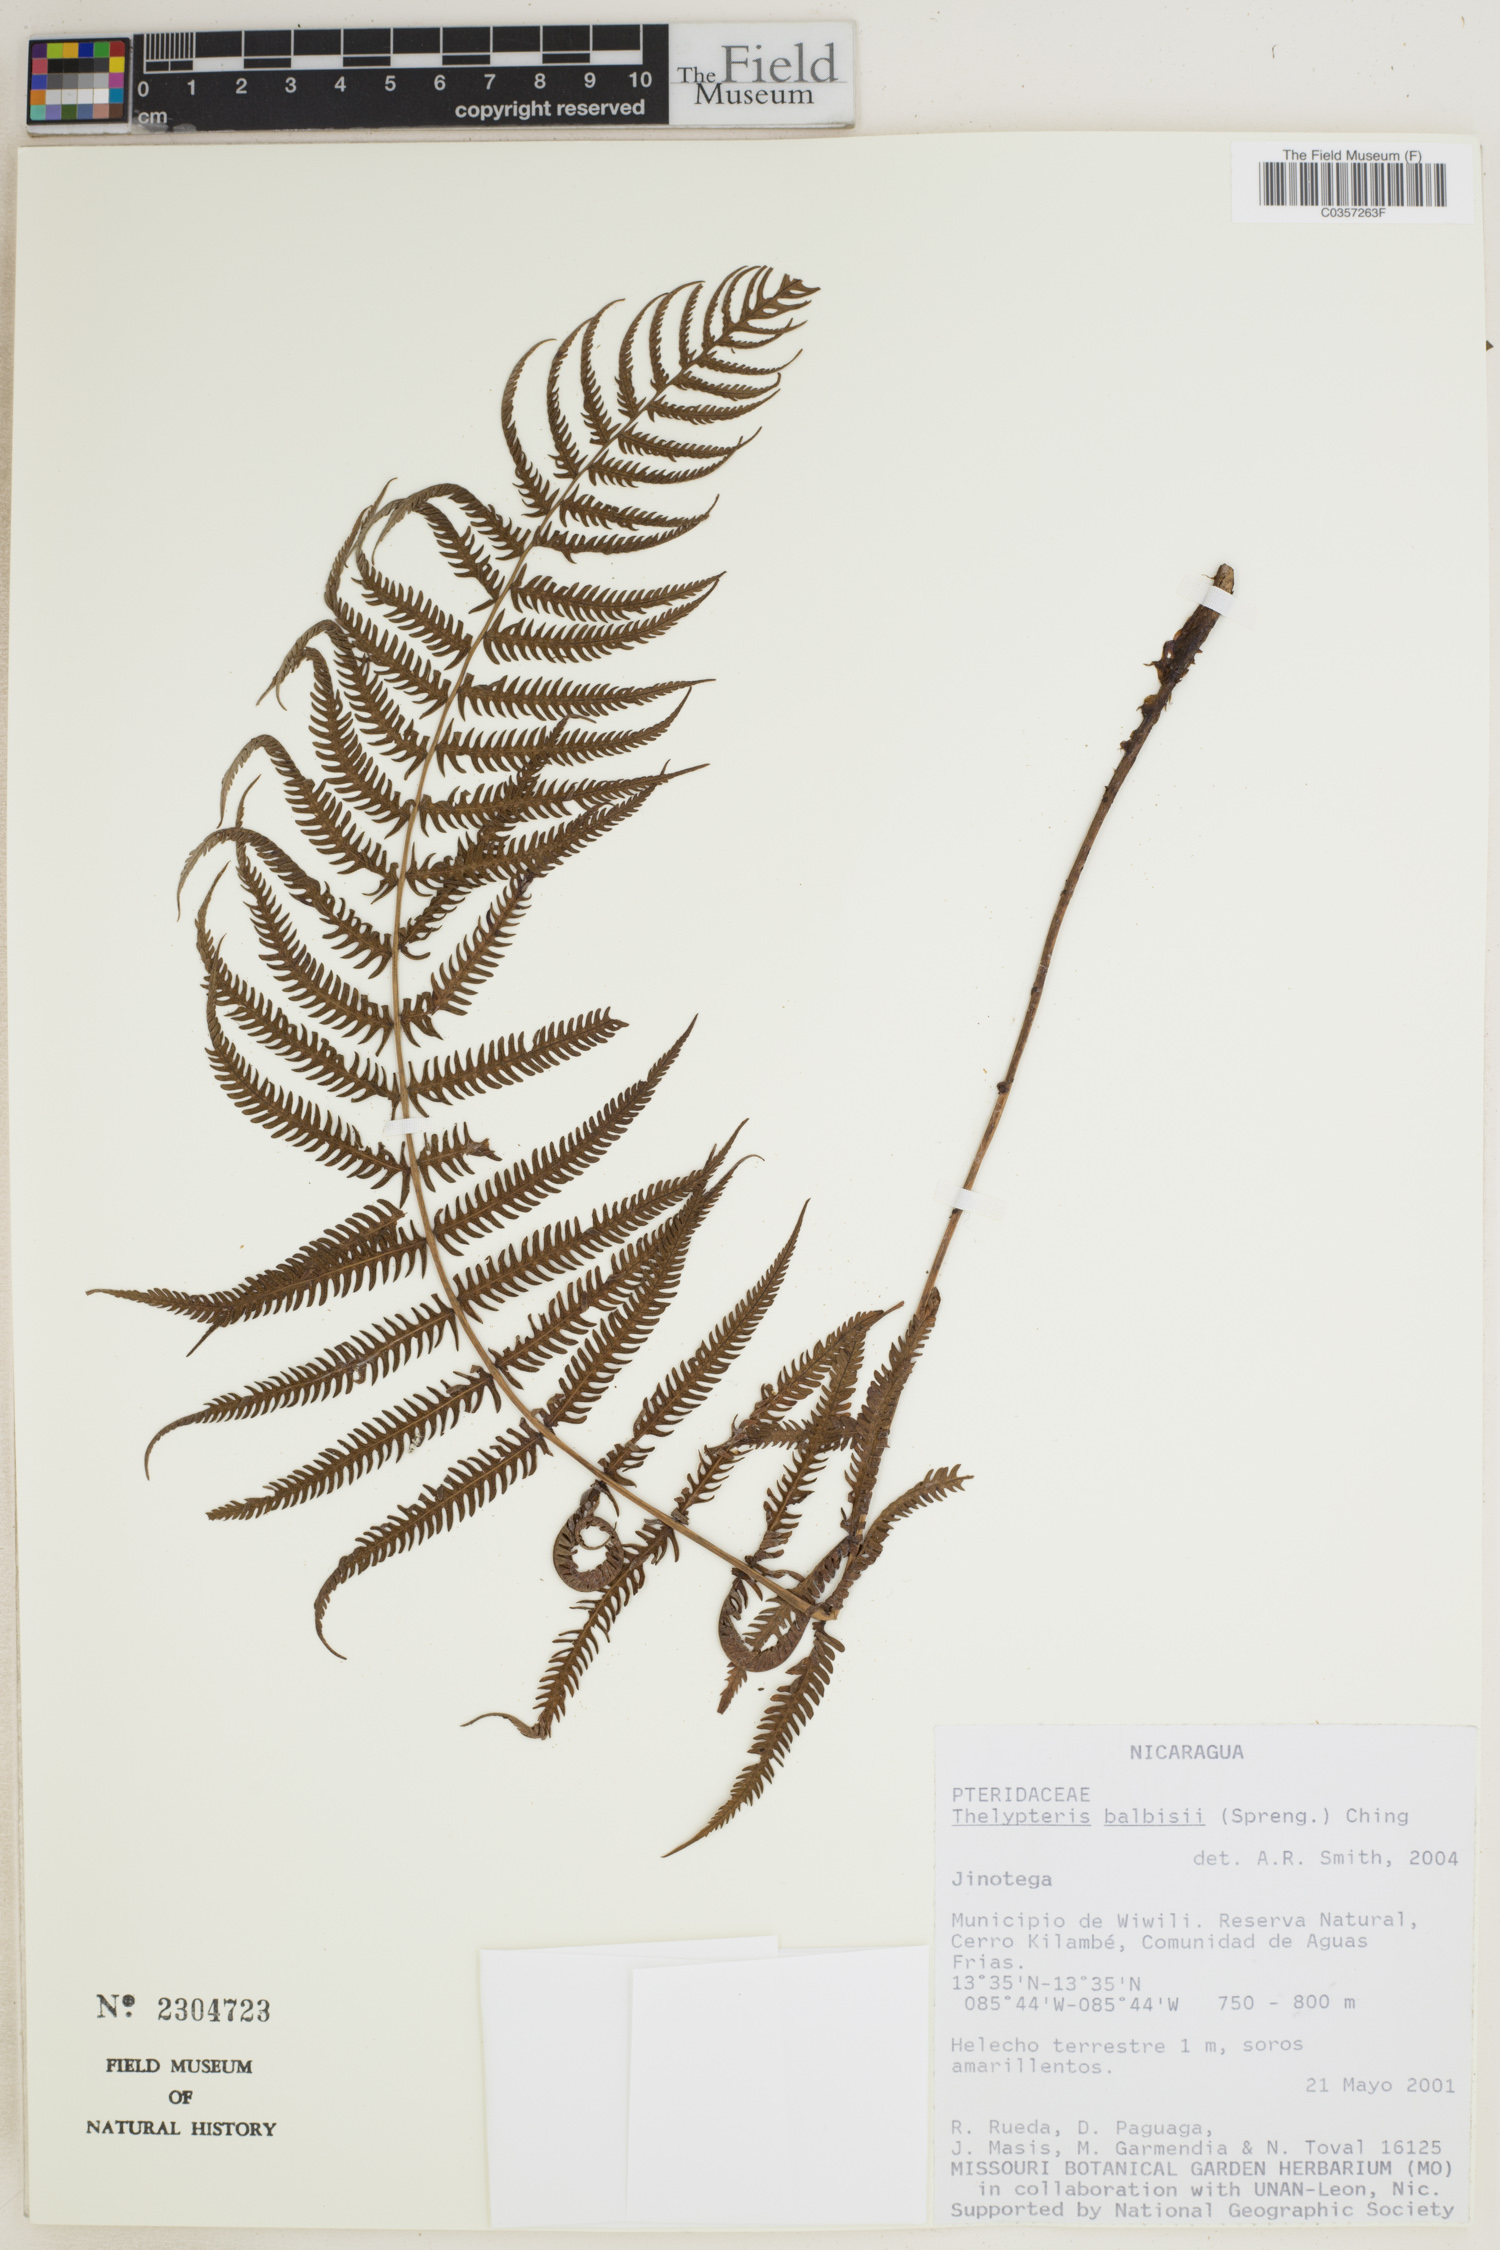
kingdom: Plantae
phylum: Tracheophyta
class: Polypodiopsida
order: Polypodiales
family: Thelypteridaceae
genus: Amauropelta
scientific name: Amauropelta balbisii
